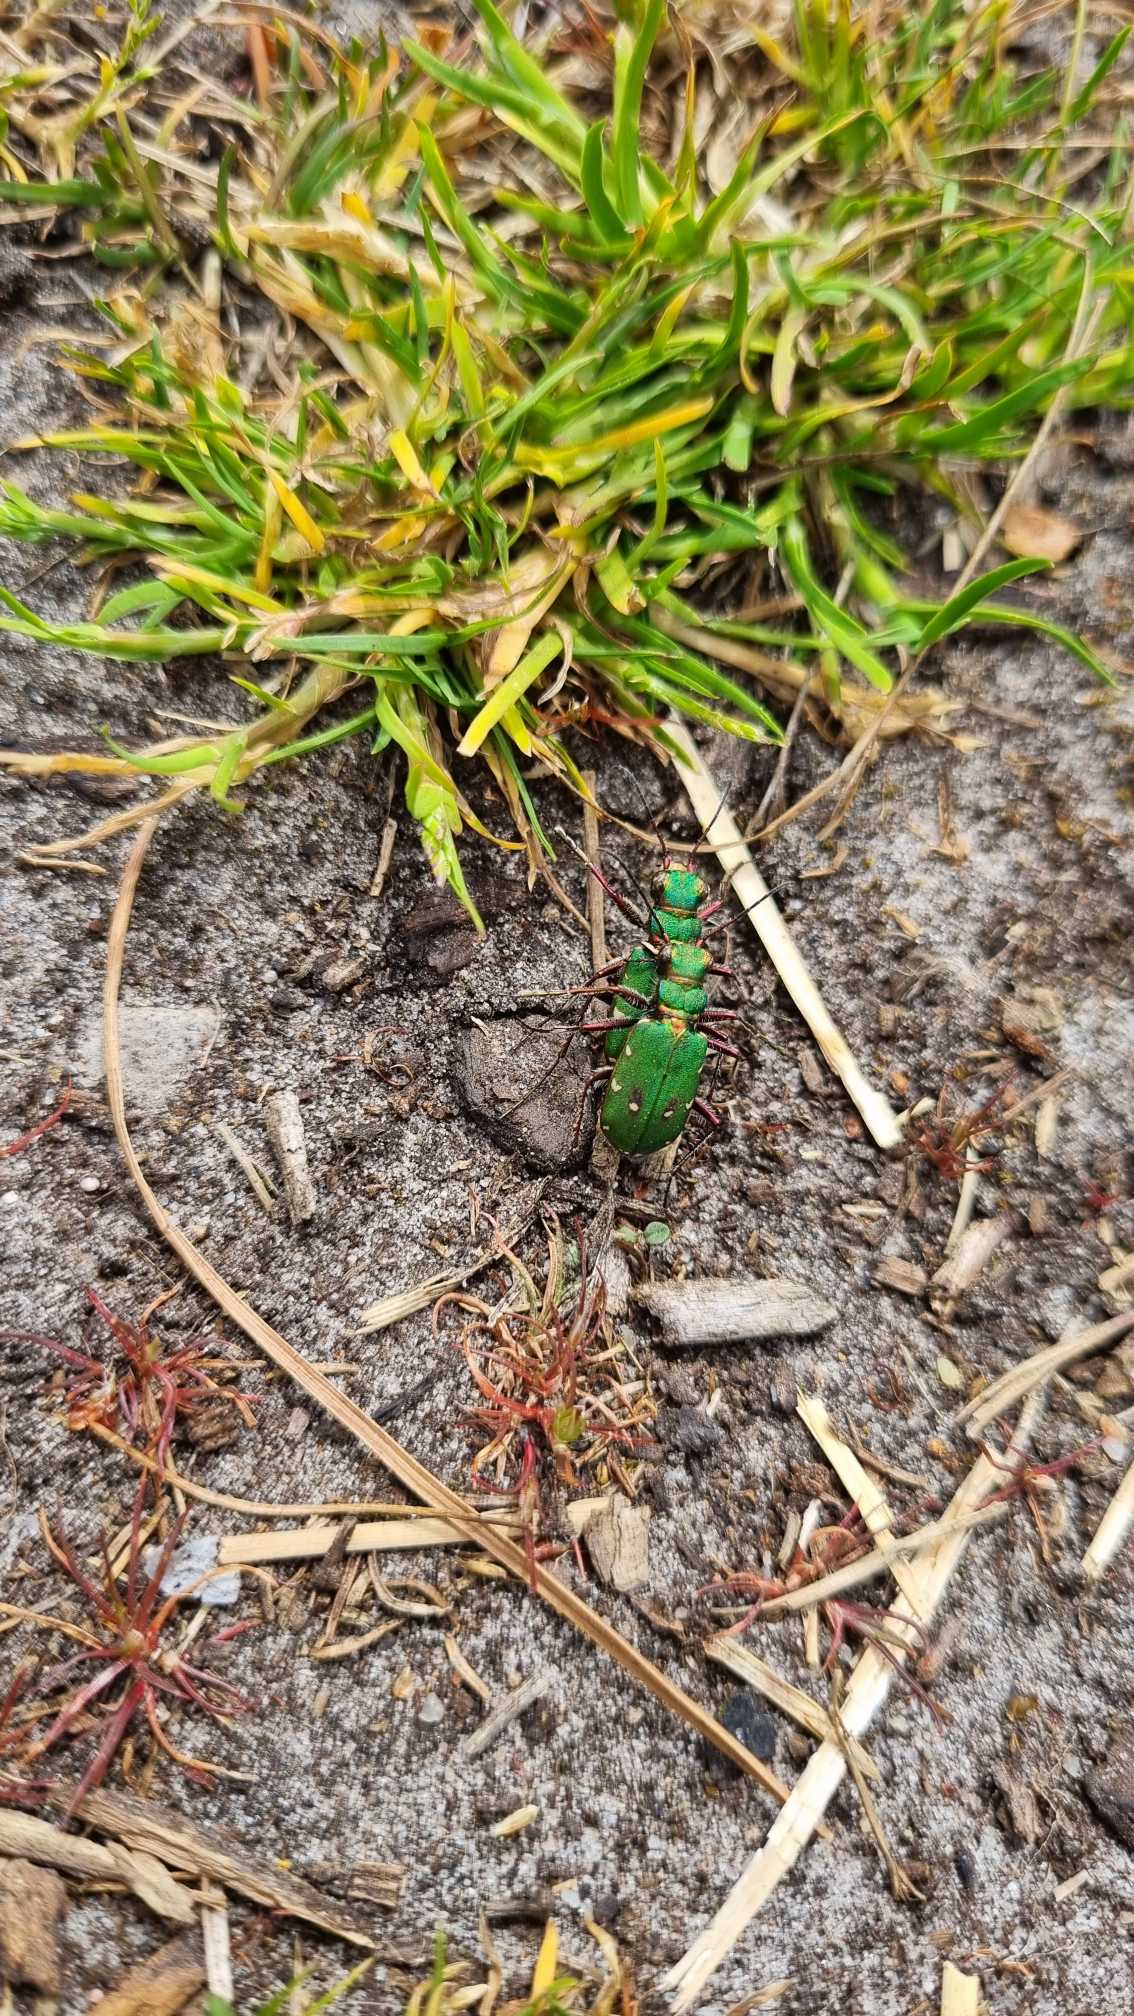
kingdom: Animalia
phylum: Arthropoda
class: Insecta
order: Coleoptera
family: Carabidae
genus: Cicindela
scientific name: Cicindela campestris
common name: Grøn sandspringer
